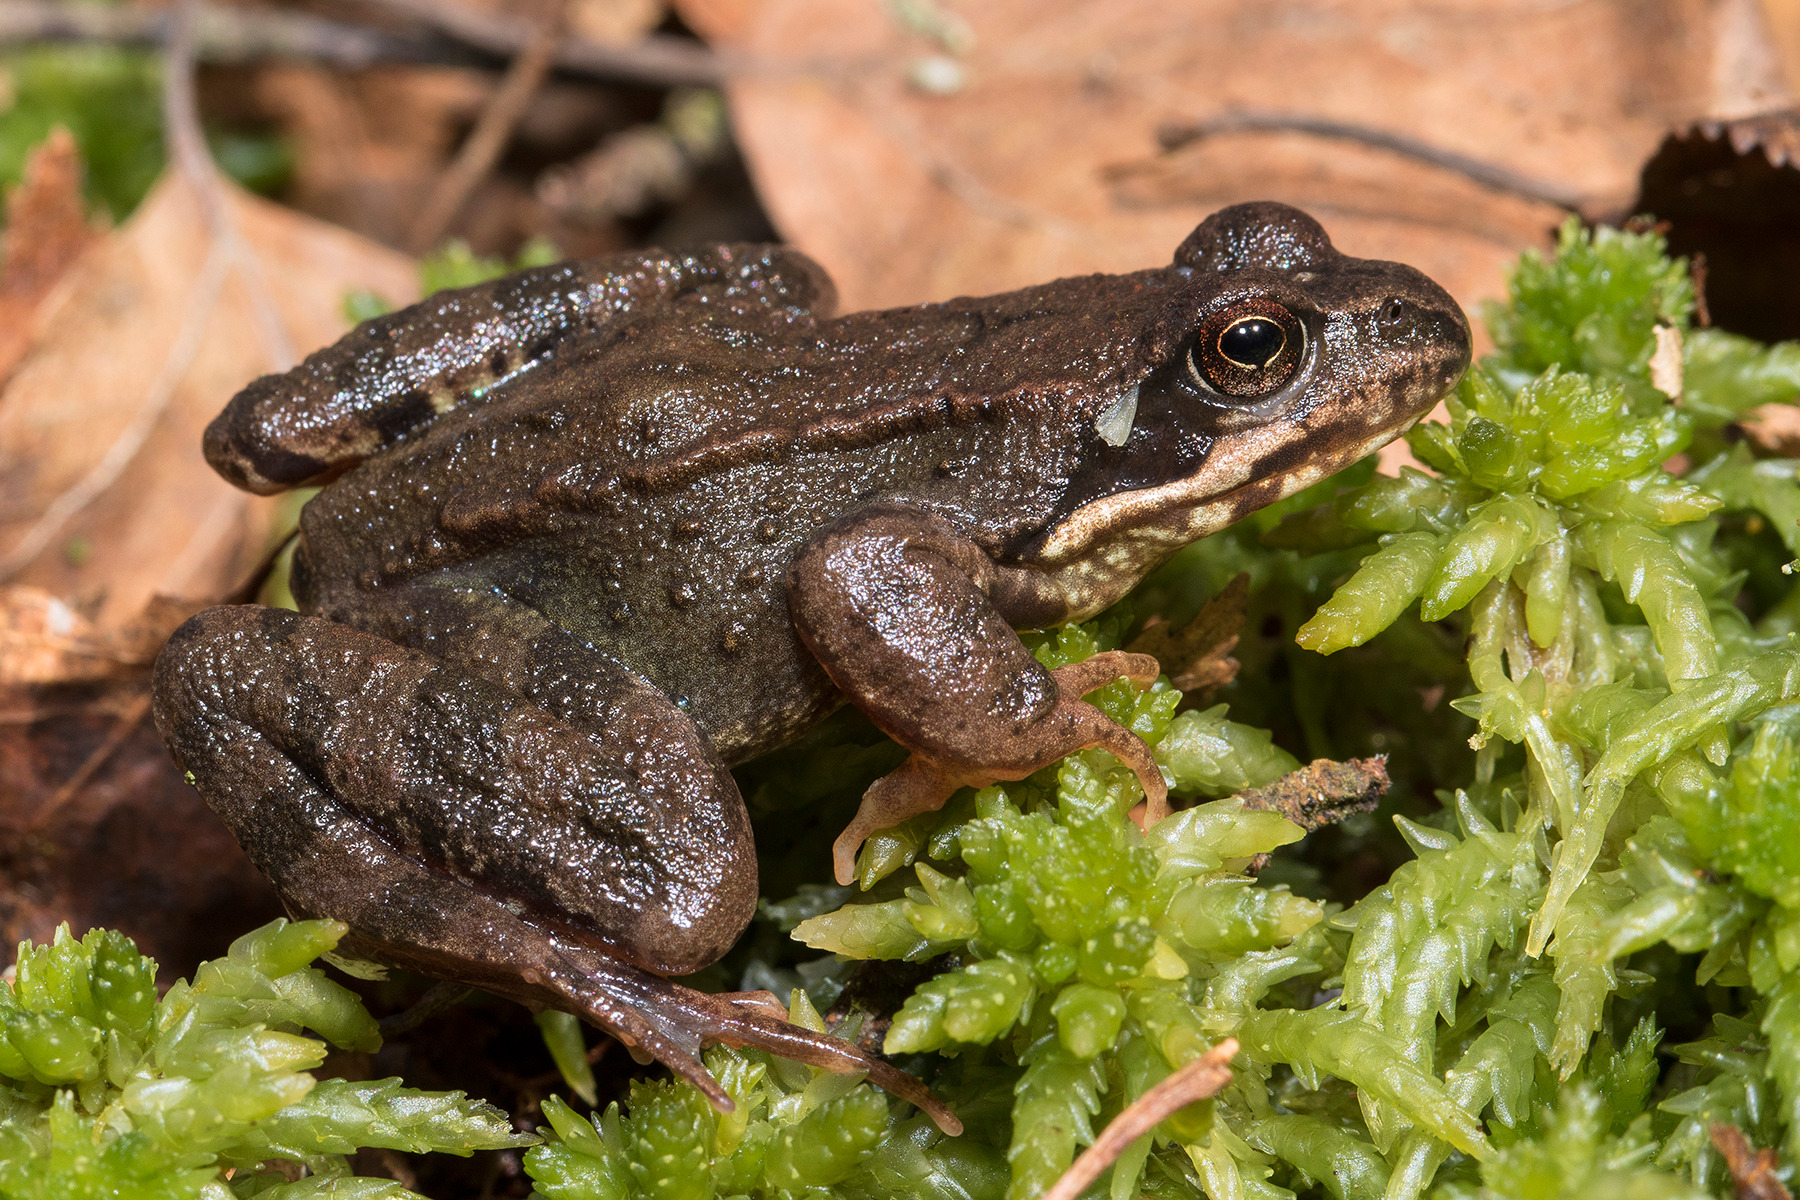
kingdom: Animalia
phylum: Chordata
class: Amphibia
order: Anura
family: Ranidae
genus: Rana
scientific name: Rana temporaria
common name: Butsnudet frø
